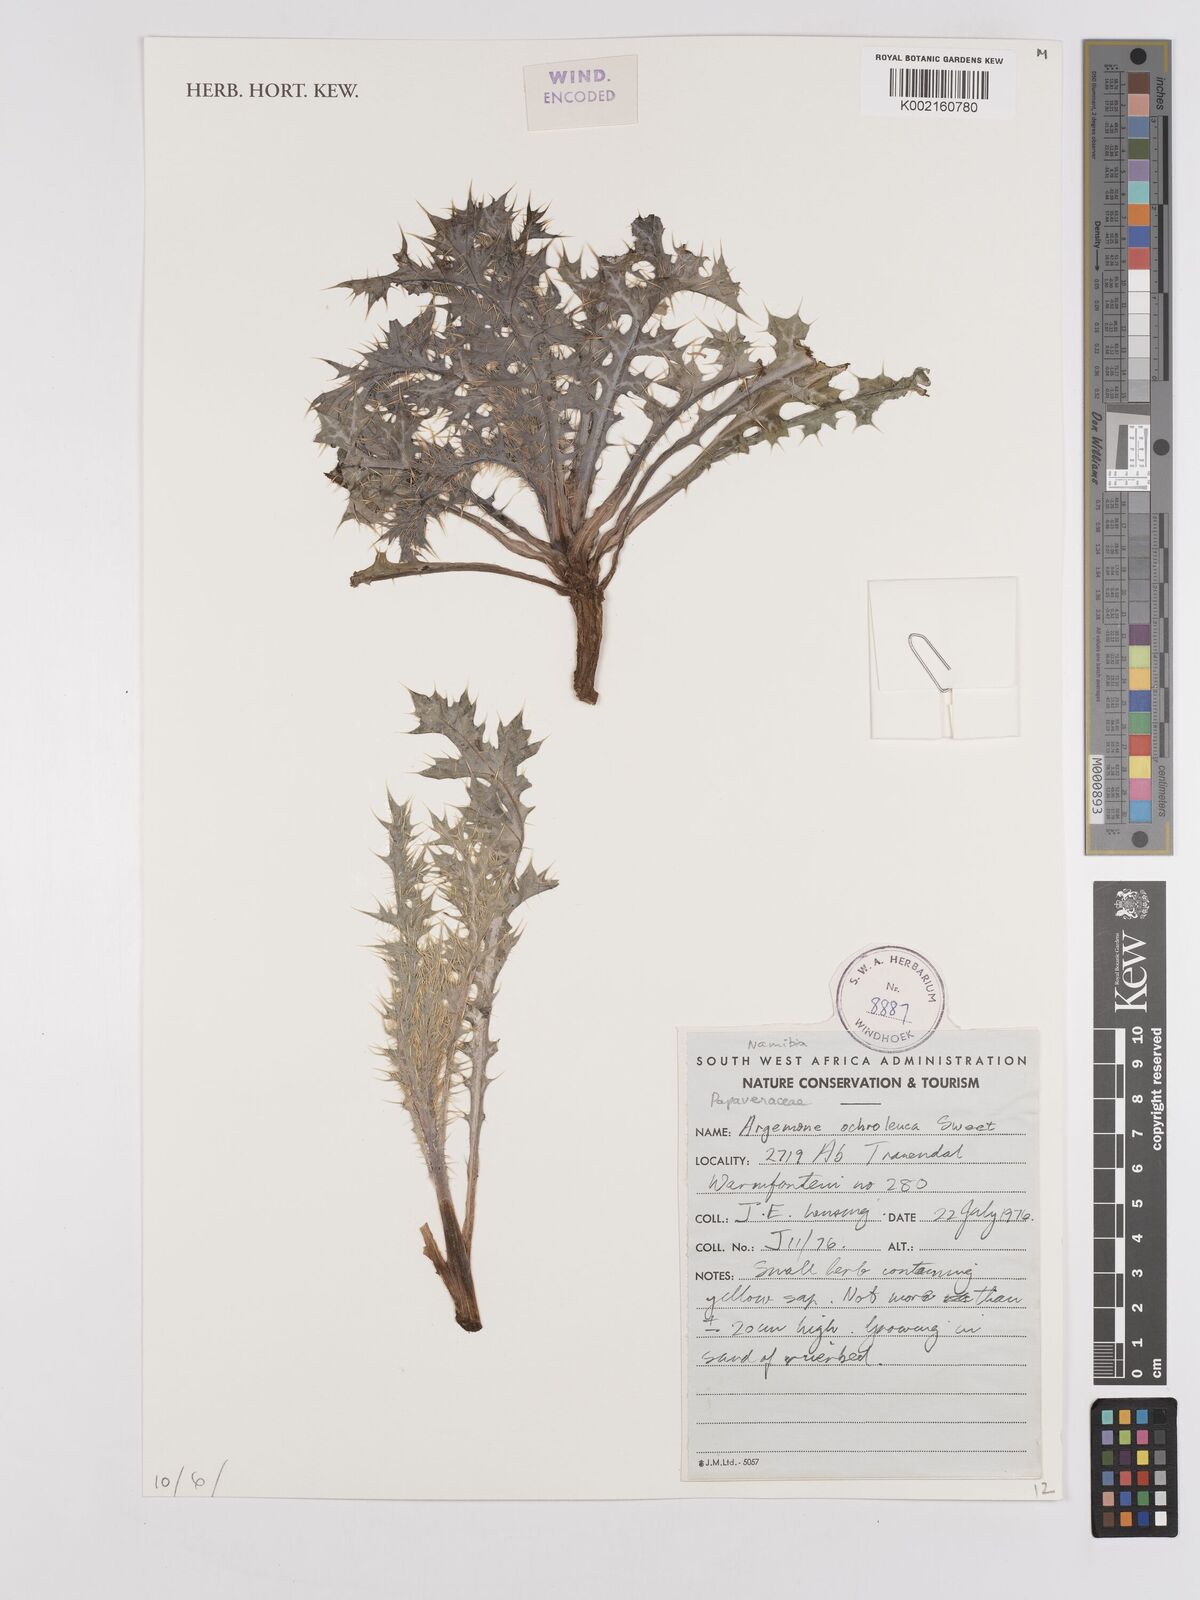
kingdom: Plantae
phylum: Tracheophyta
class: Magnoliopsida
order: Ranunculales
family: Papaveraceae
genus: Argemone
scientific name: Argemone ochroleuca
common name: White-flower mexican-poppy
